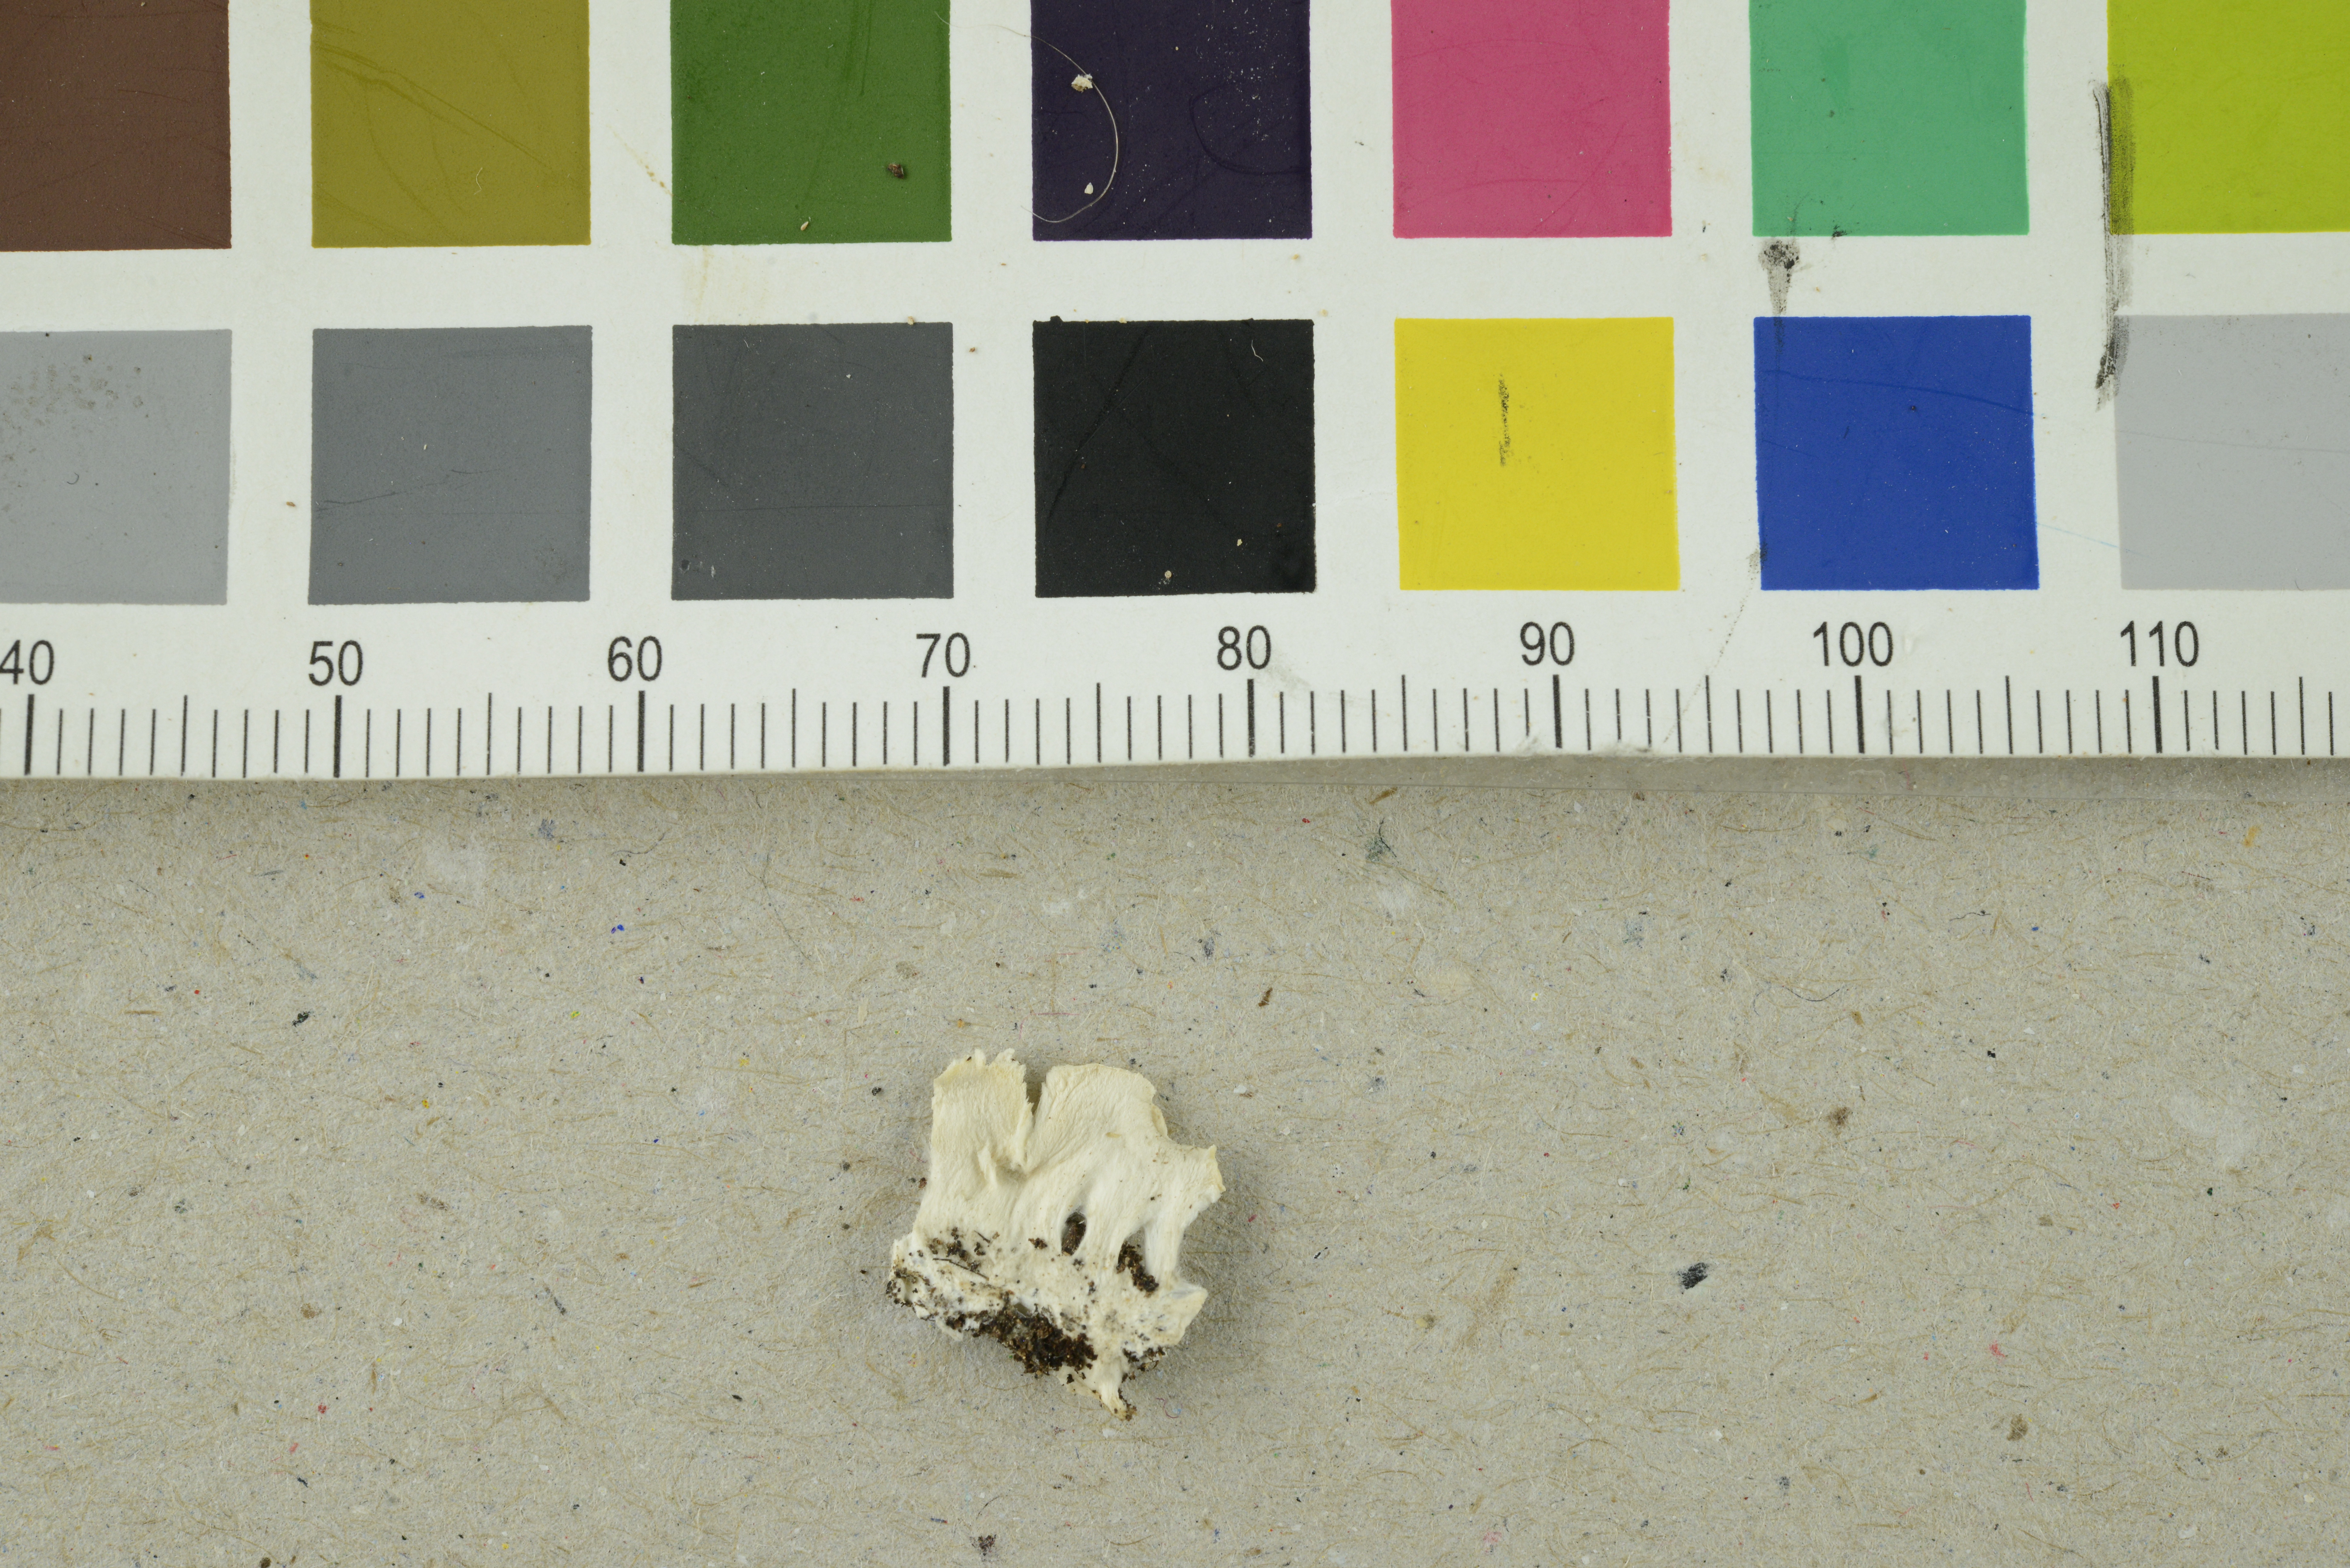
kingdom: Fungi
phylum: Basidiomycota
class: Agaricomycetes
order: Polyporales
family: Dacryobolaceae
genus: Postia
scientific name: Postia lowei
